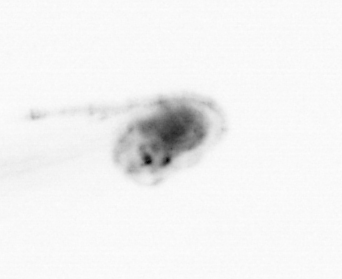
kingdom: Animalia
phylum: Chordata
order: Copelata
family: Fritillariidae
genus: Appendicularia
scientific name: Appendicularia
